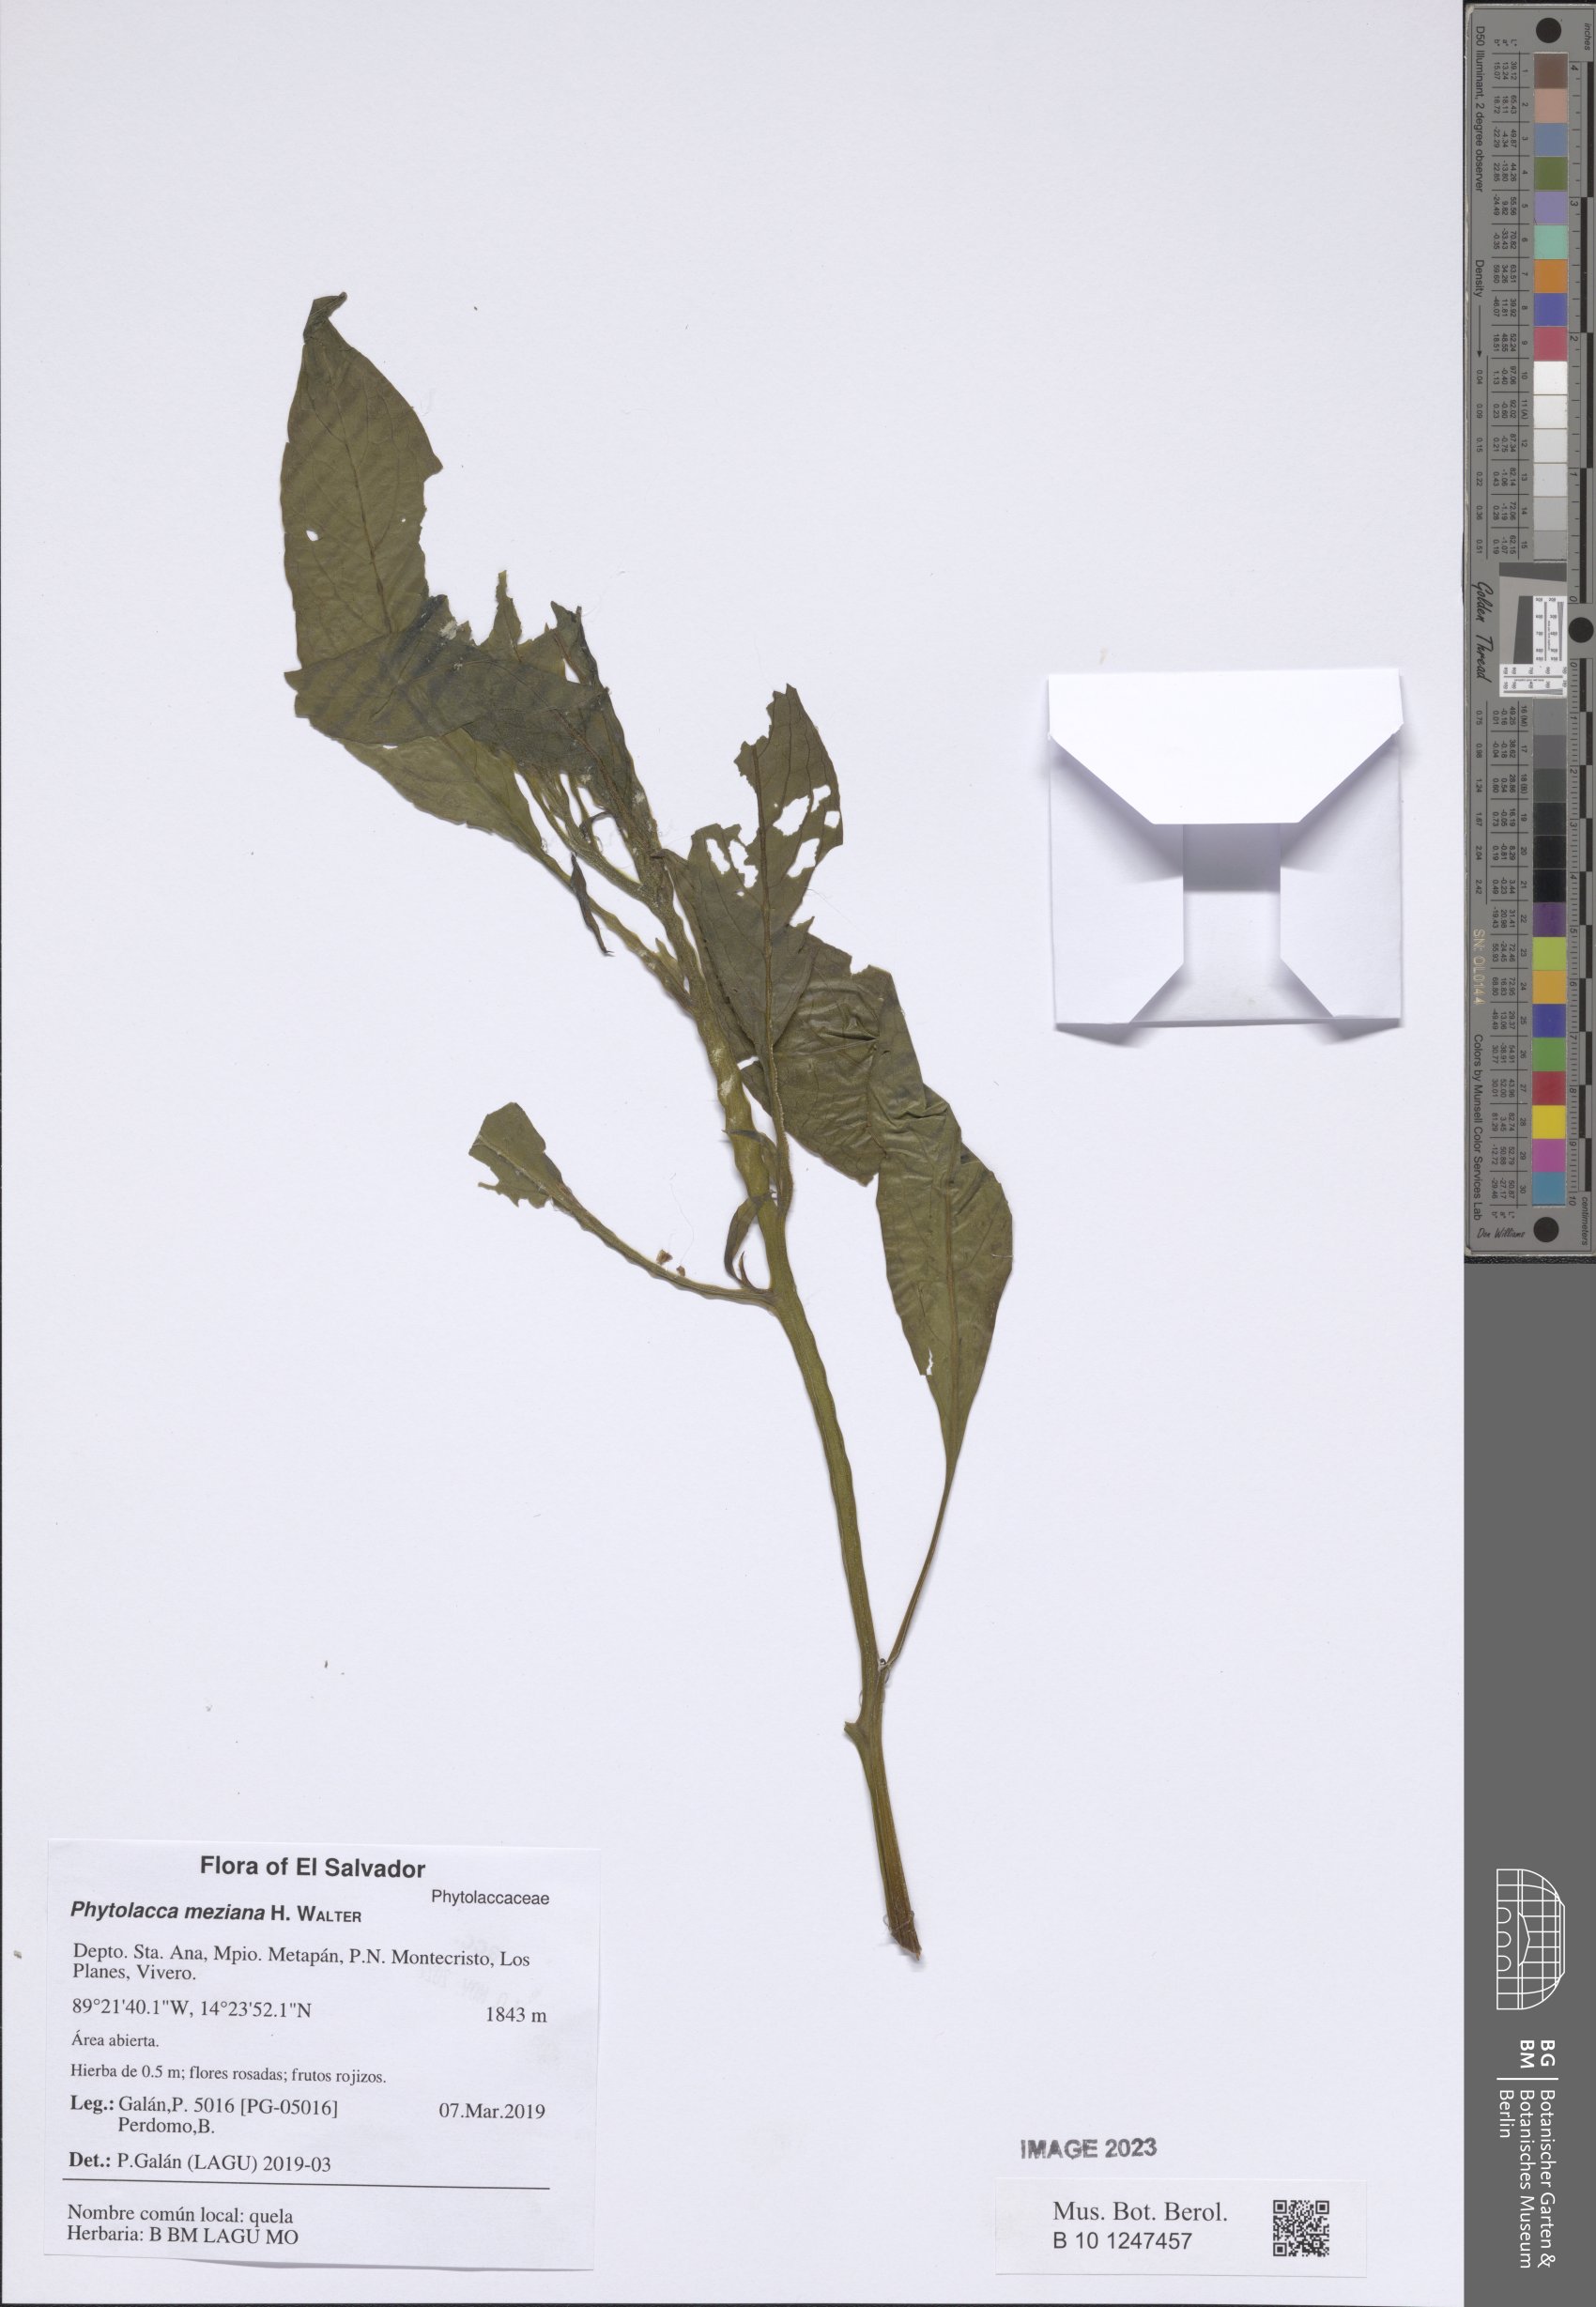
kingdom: Plantae
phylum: Tracheophyta
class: Magnoliopsida
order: Caryophyllales
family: Phytolaccaceae
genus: Phytolacca
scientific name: Phytolacca meziana
